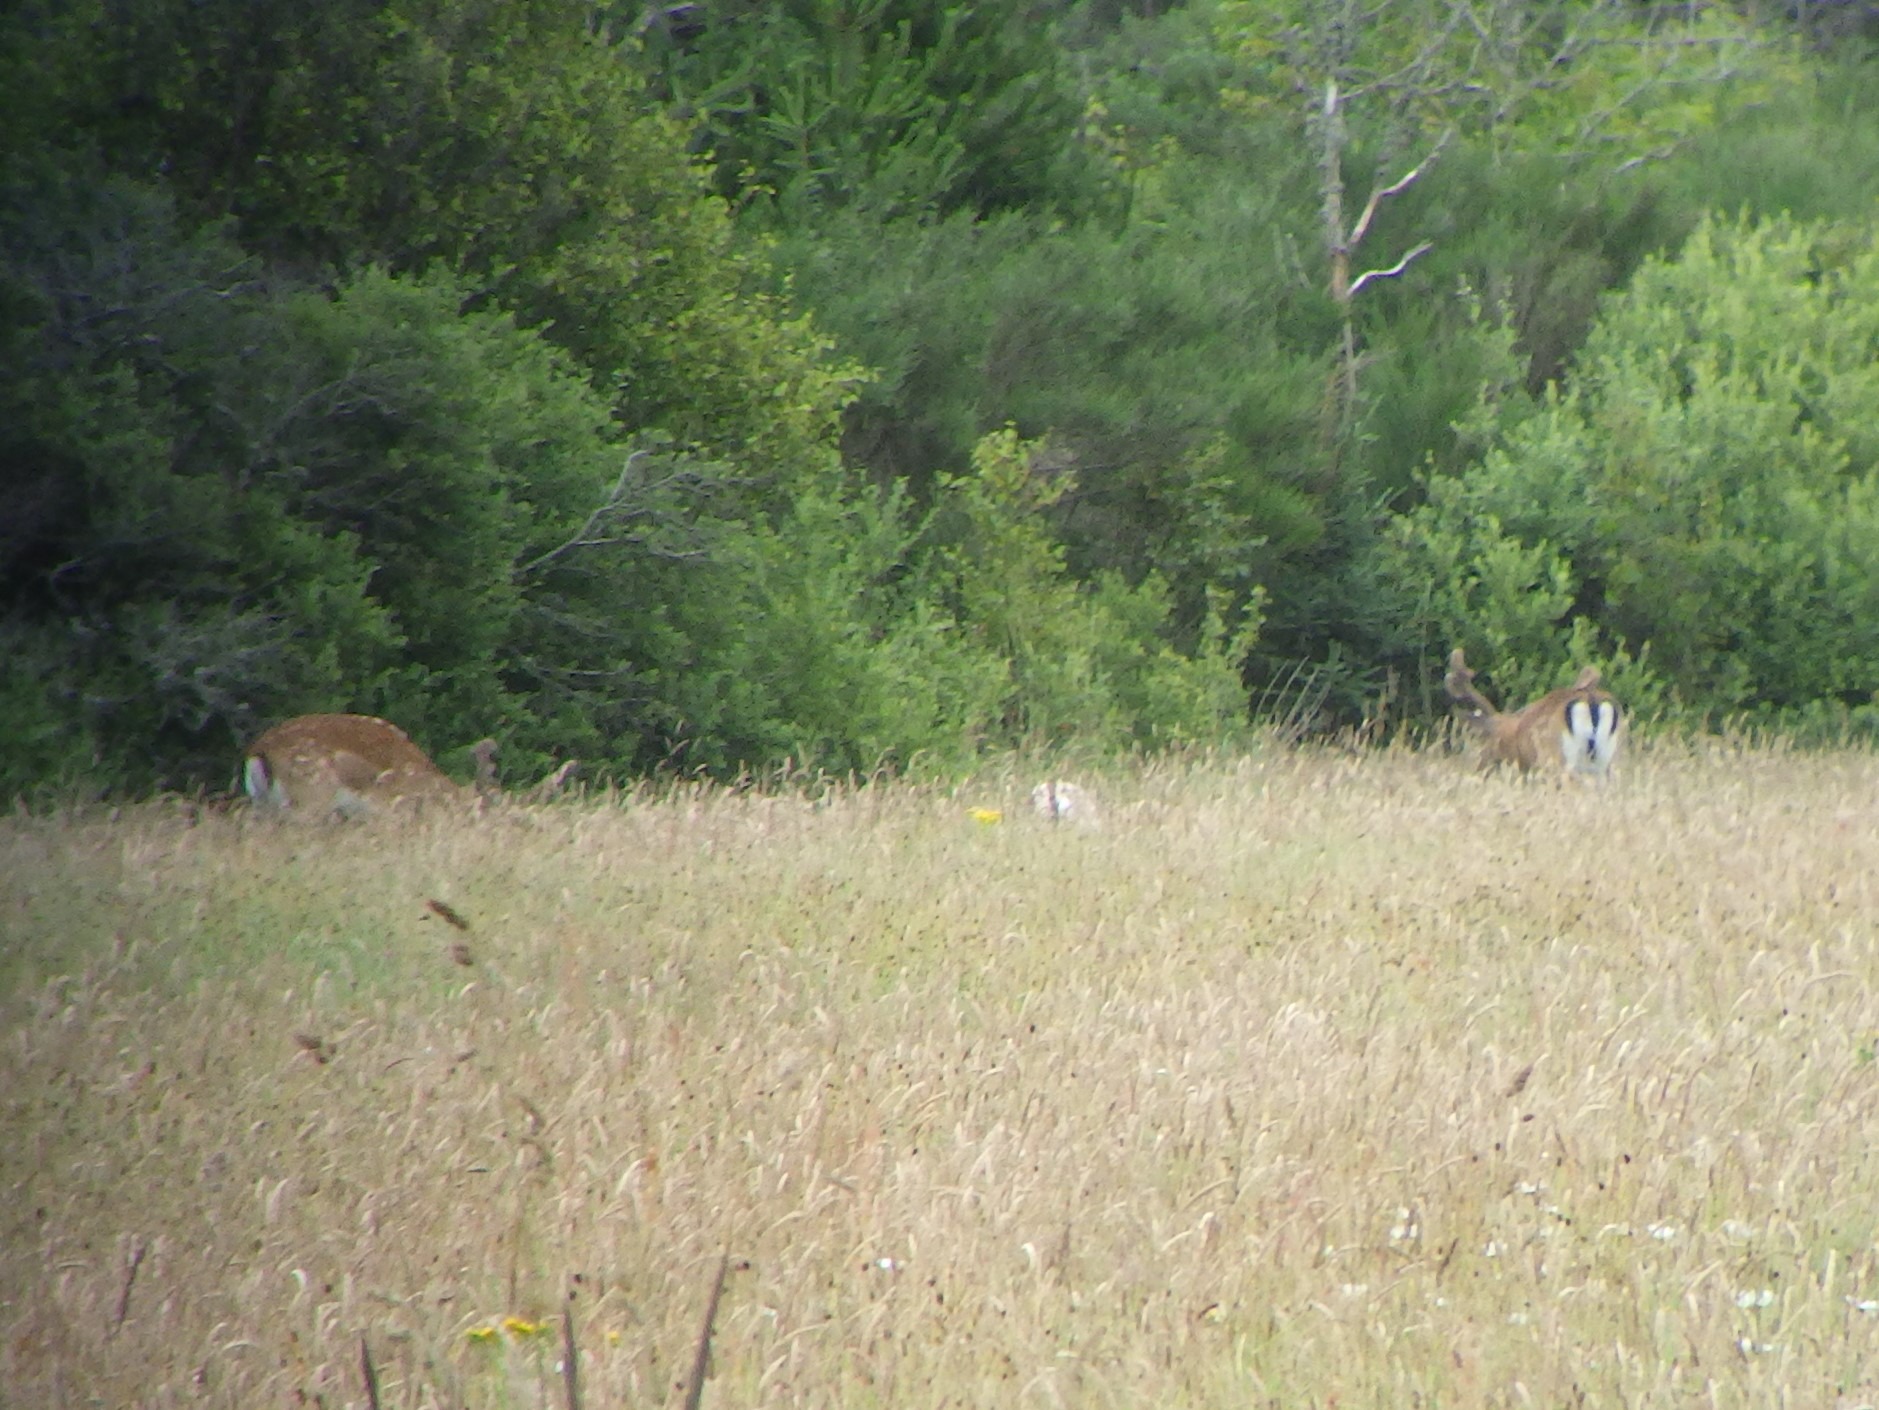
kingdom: Animalia
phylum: Chordata
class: Mammalia
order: Artiodactyla
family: Cervidae
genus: Dama
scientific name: Dama dama
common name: Dådyr
